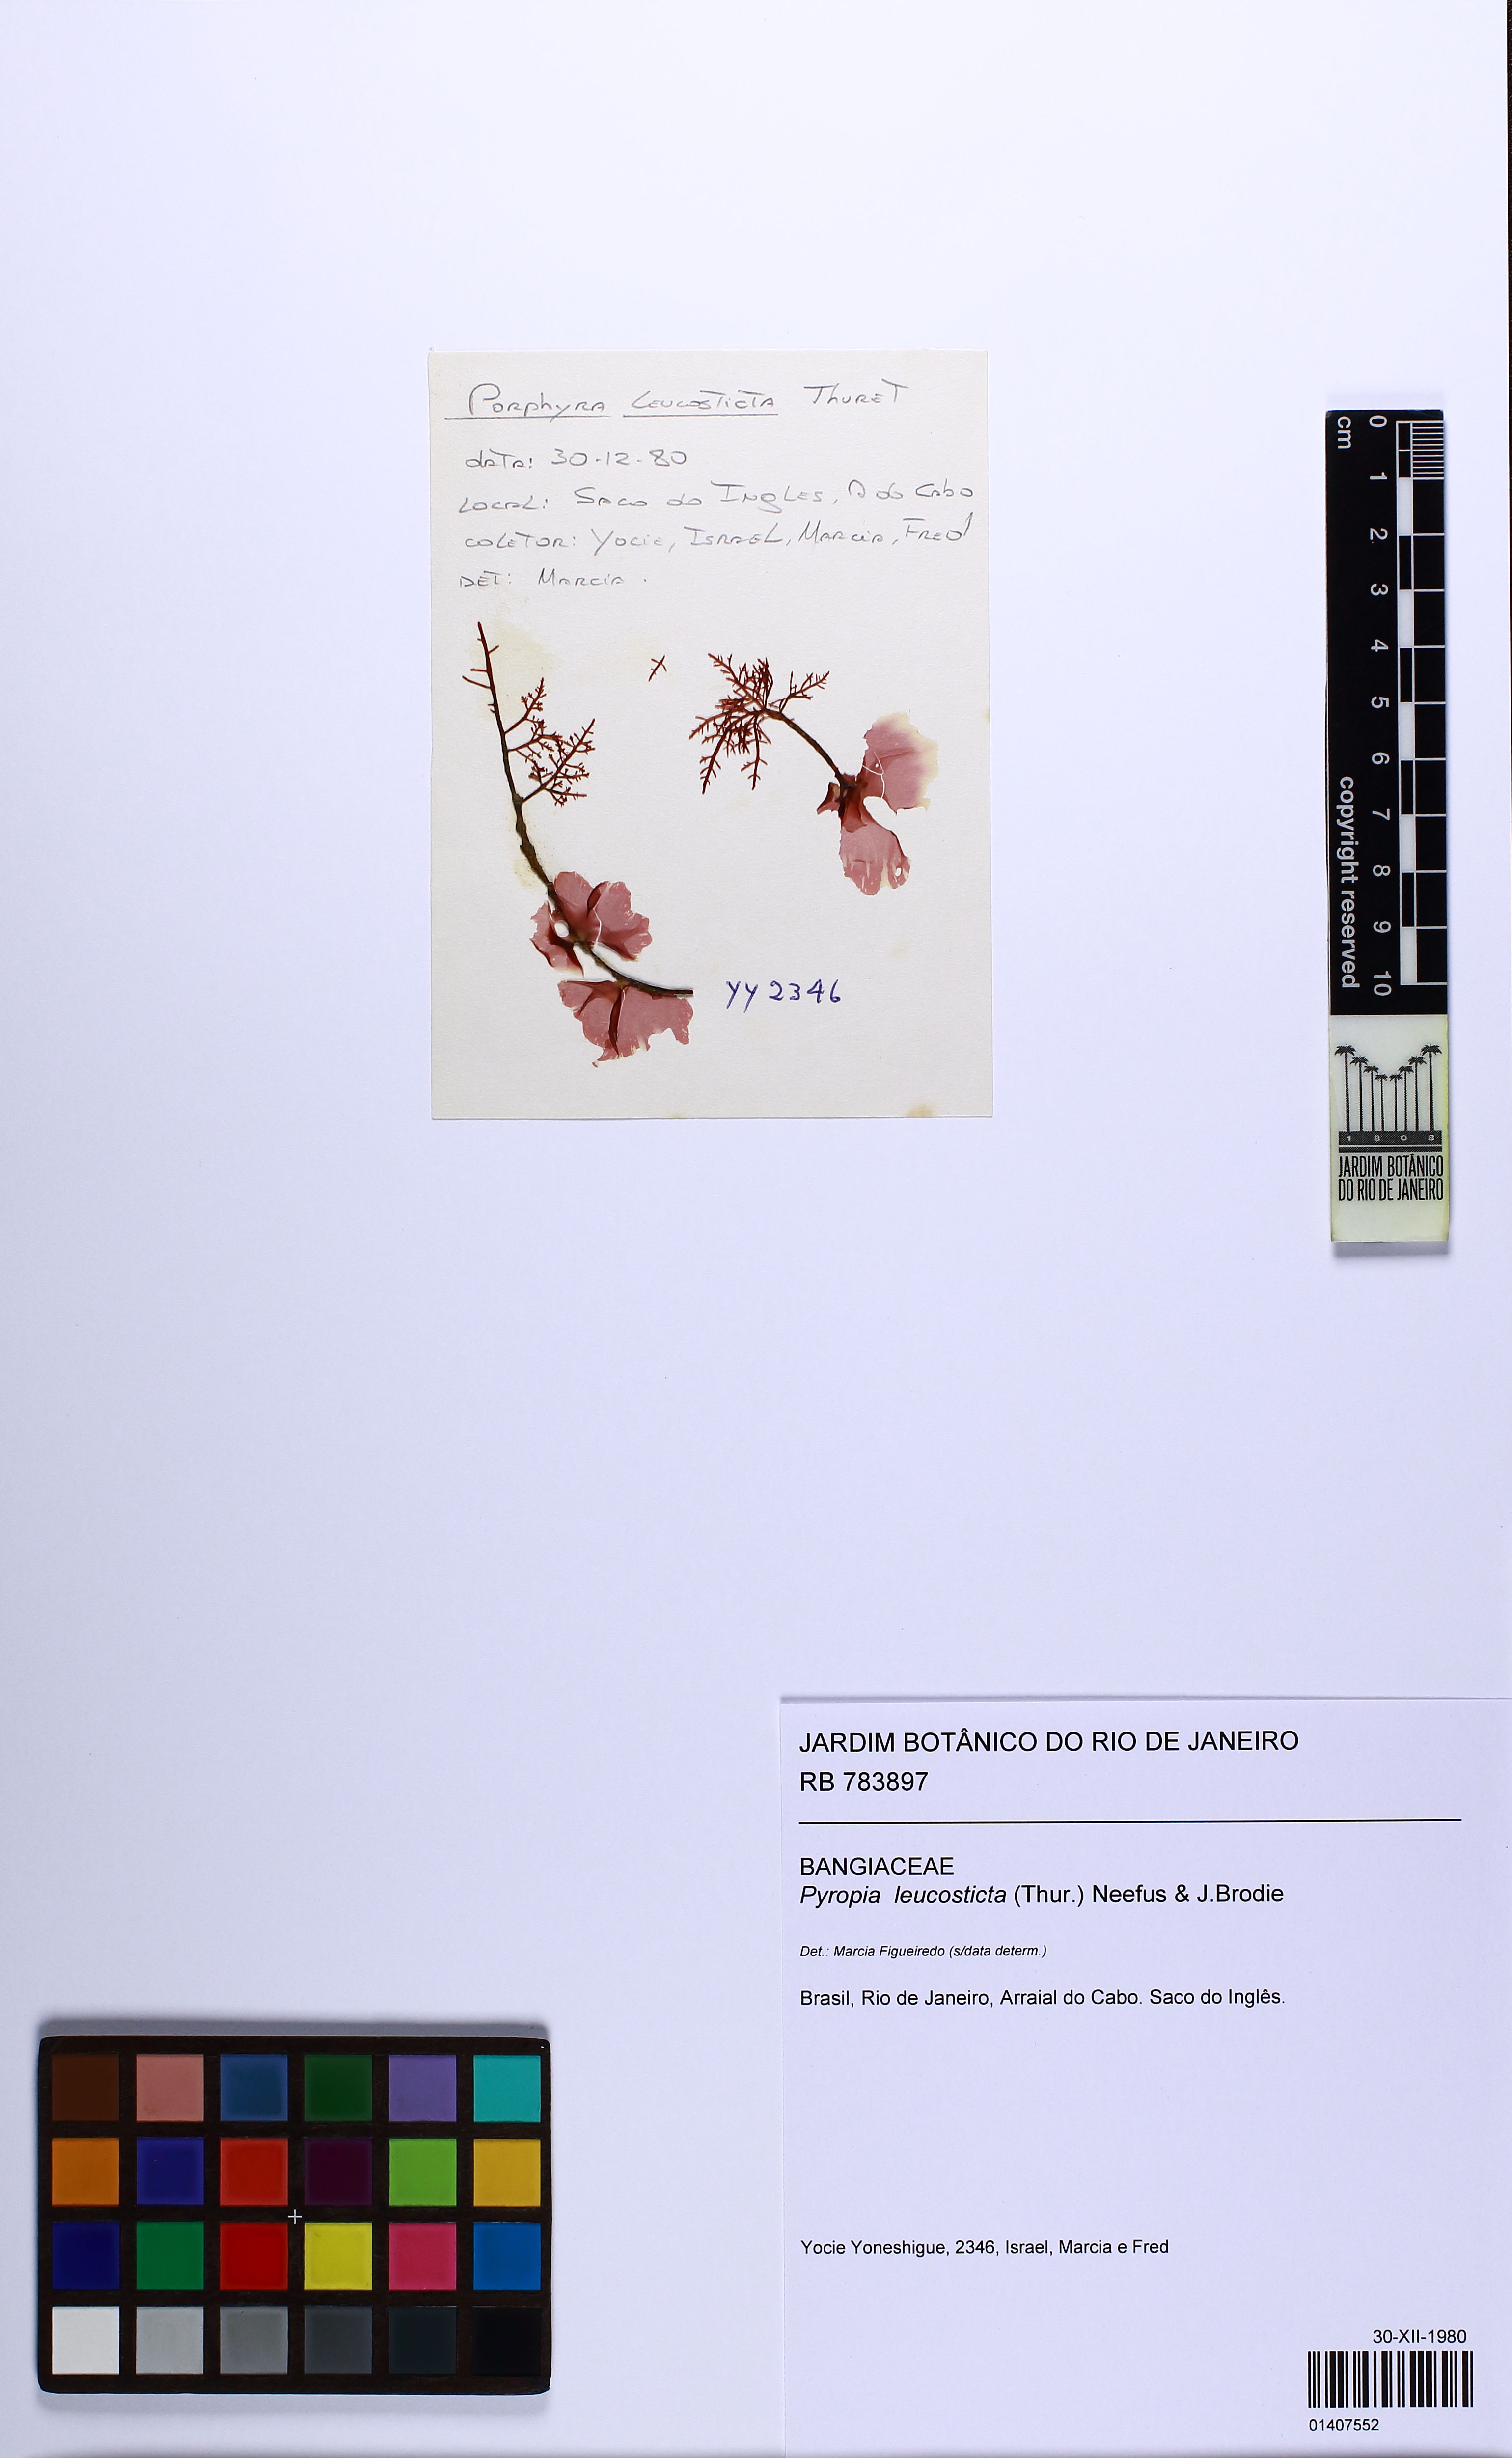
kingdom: Plantae
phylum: Rhodophyta
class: Bangiophyceae
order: Bangiales
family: Bangiaceae
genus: Neopyropia
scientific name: Neopyropia spec
